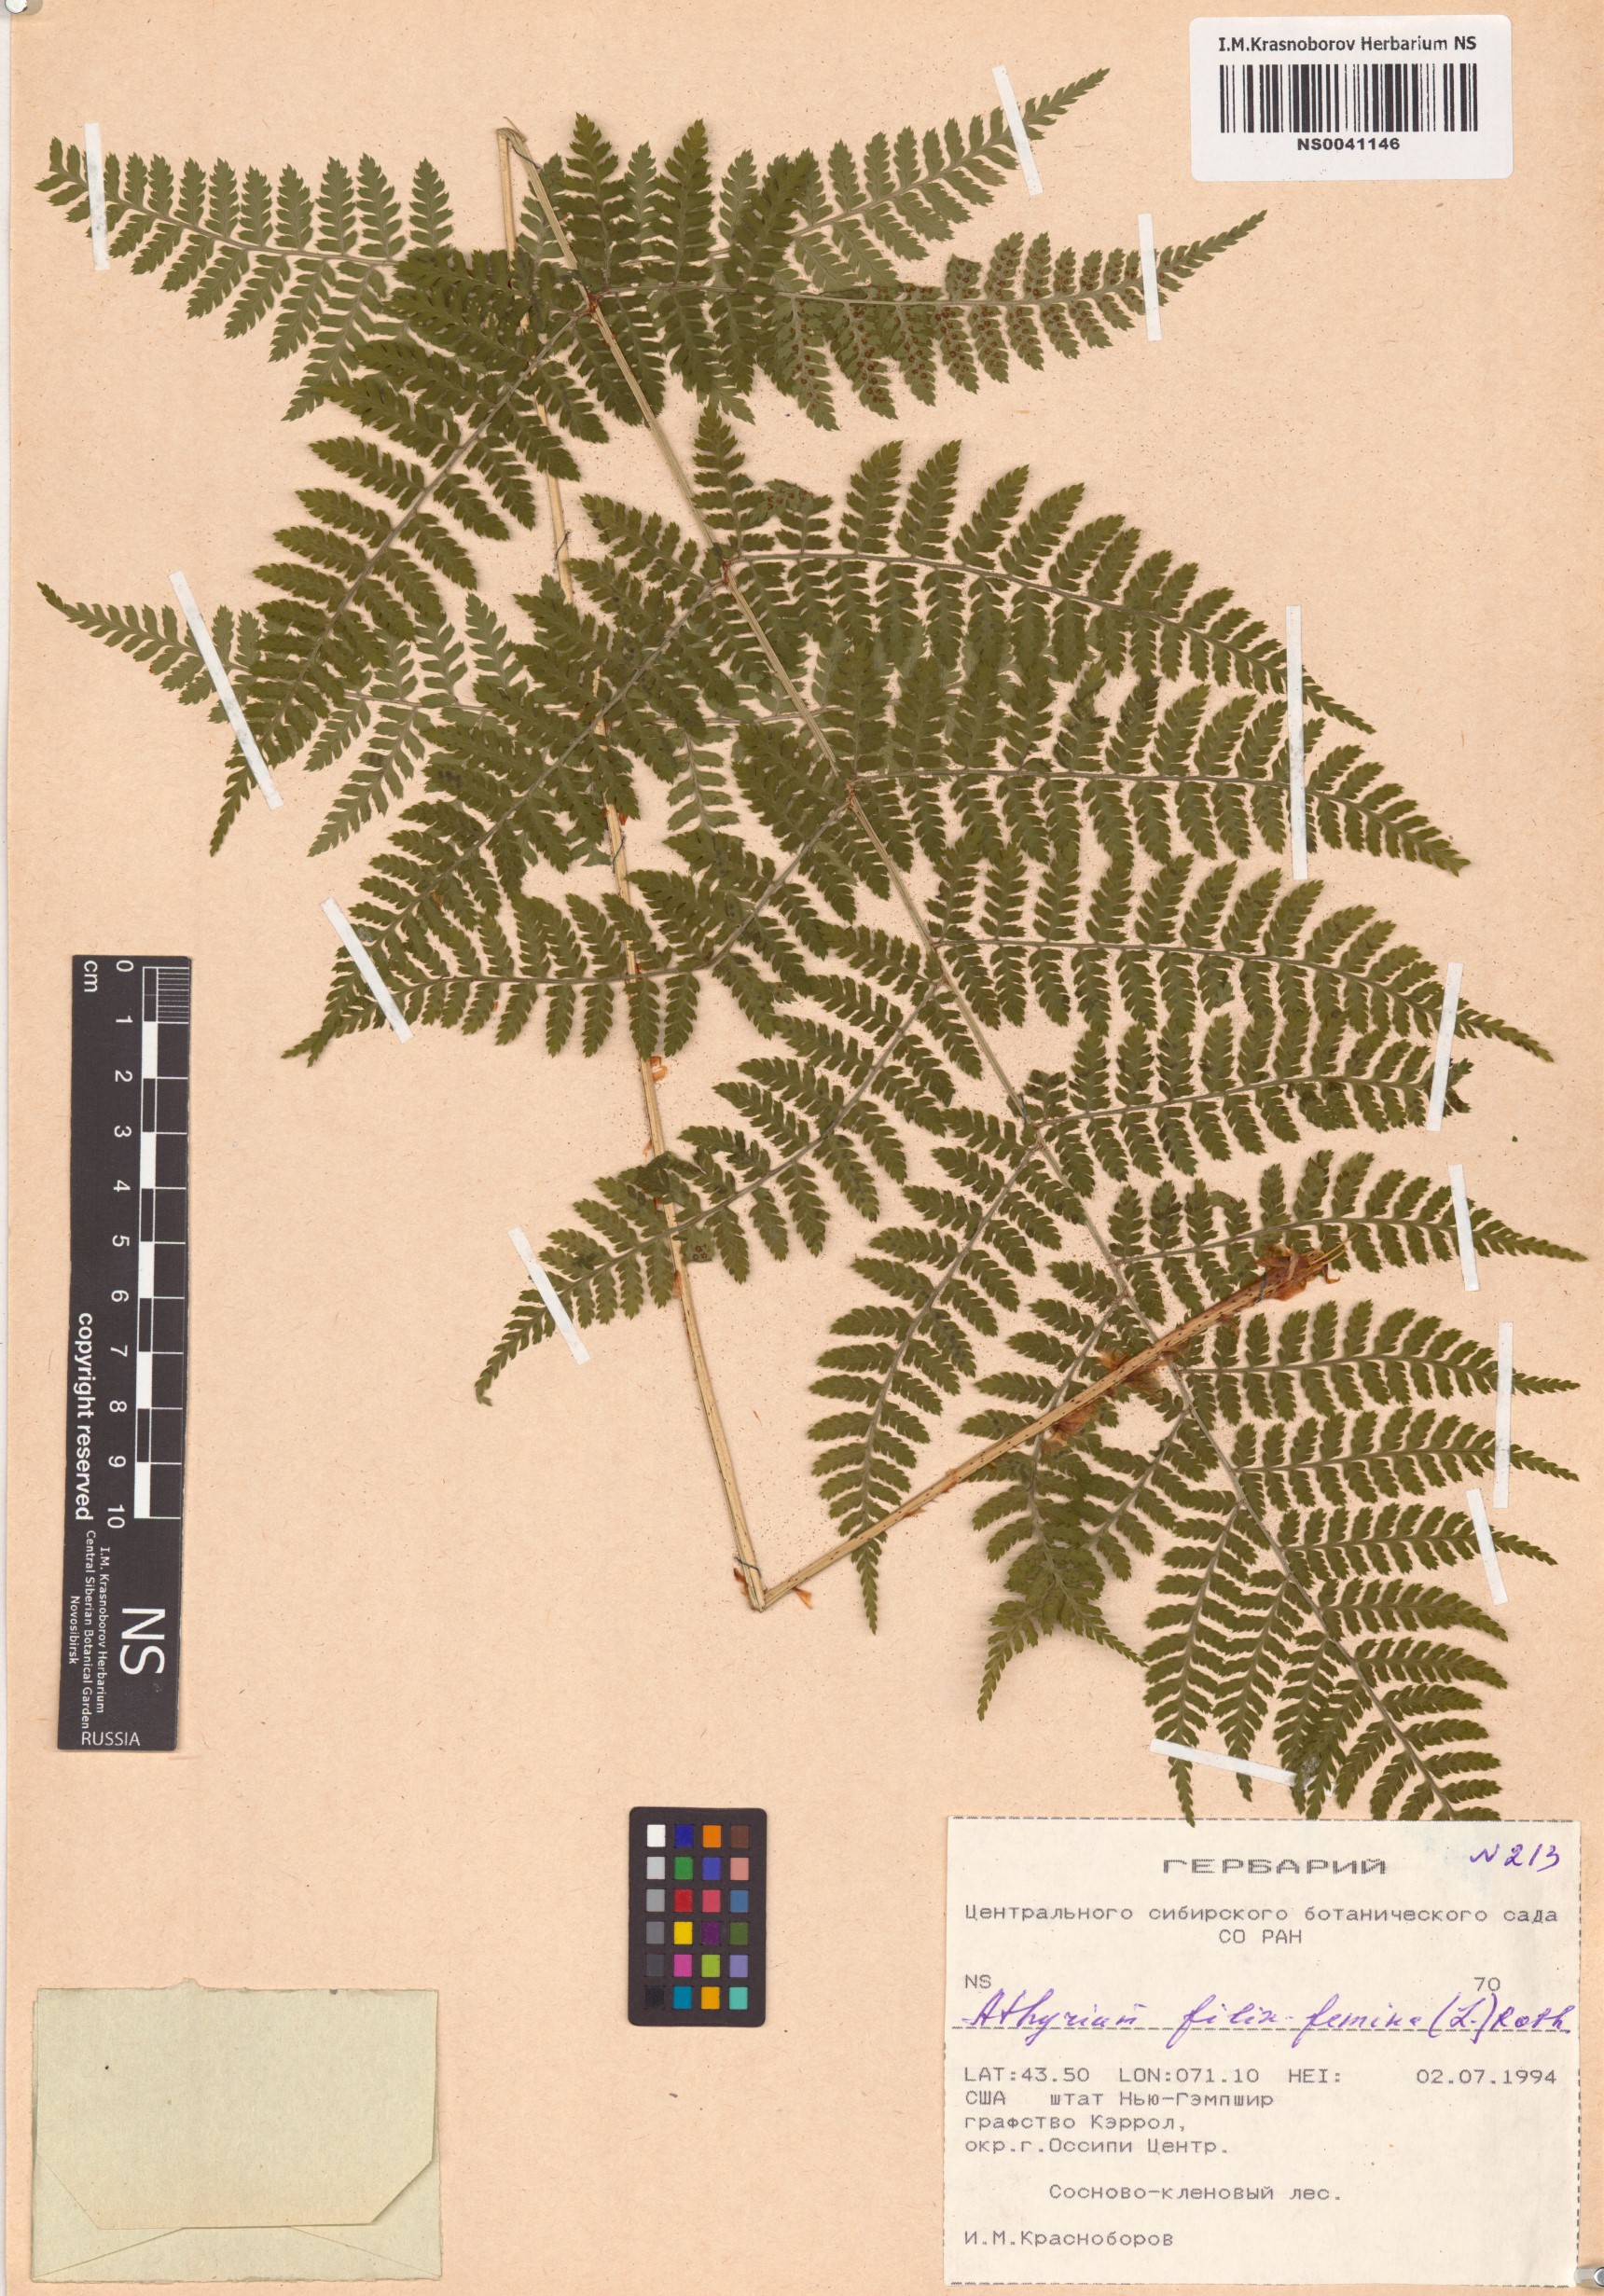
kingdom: Plantae
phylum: Tracheophyta
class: Polypodiopsida
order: Polypodiales
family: Athyriaceae
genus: Athyrium
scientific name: Athyrium filix-femina
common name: Lady fern
